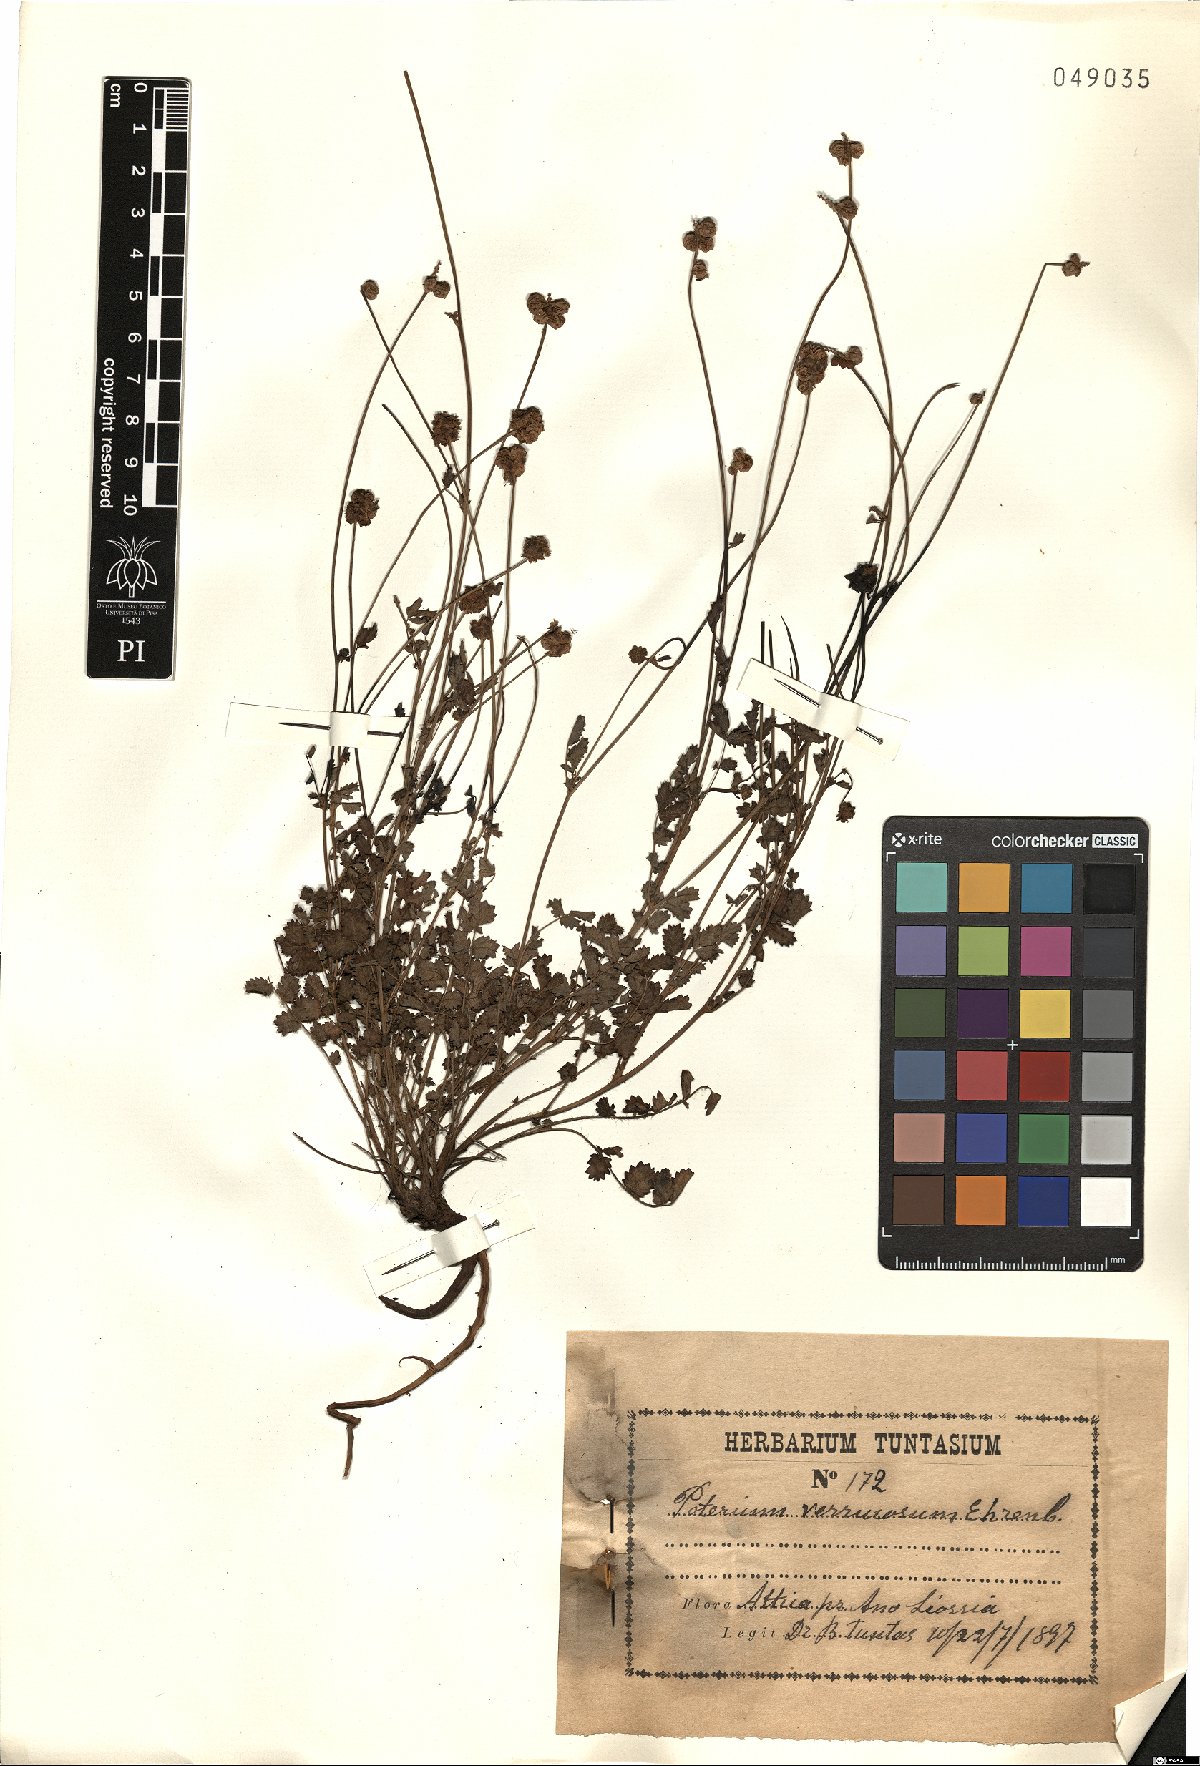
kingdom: Plantae
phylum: Tracheophyta
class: Magnoliopsida
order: Rosales
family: Rosaceae
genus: Poterium
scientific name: Poterium verrucosum
